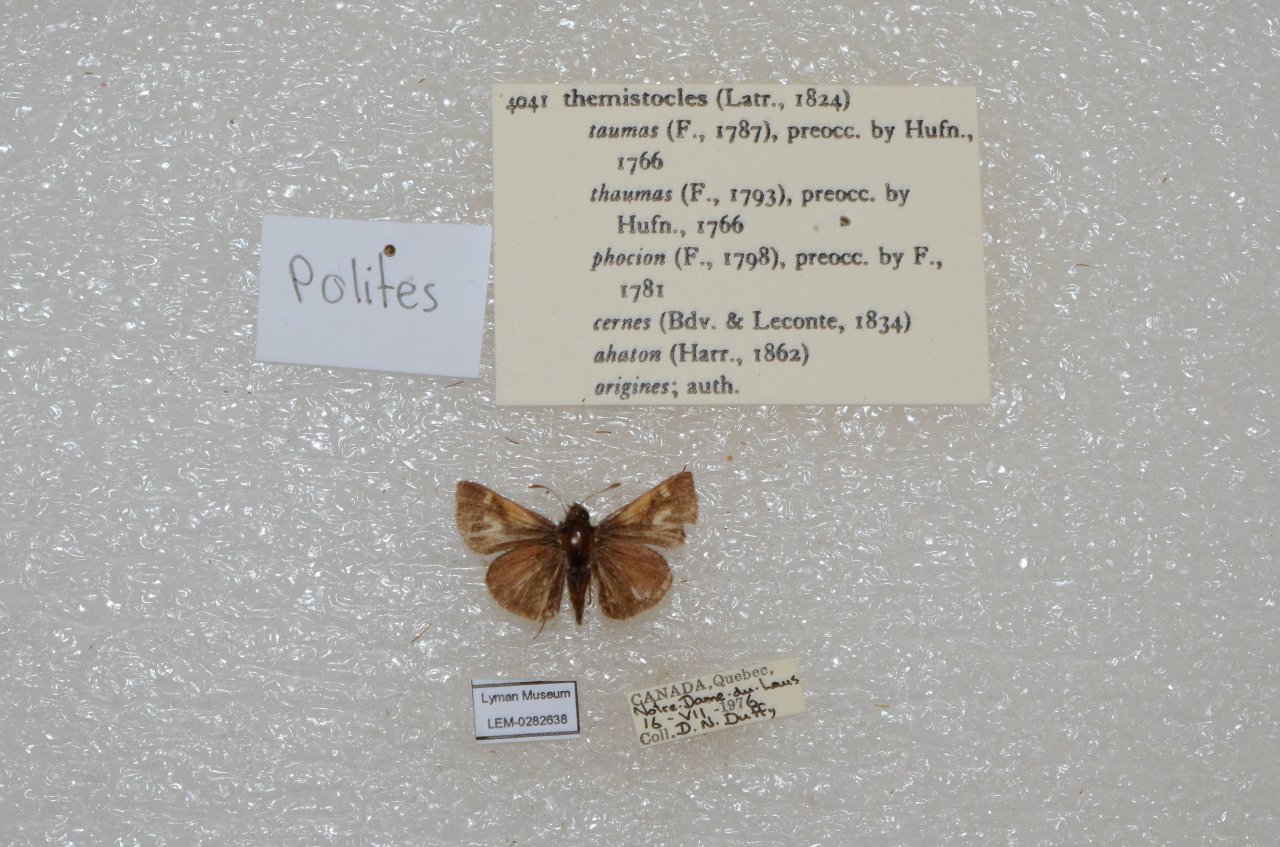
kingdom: Animalia
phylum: Arthropoda
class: Insecta
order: Lepidoptera
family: Hesperiidae
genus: Polites
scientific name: Polites themistocles
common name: Tawny-edged Skipper
